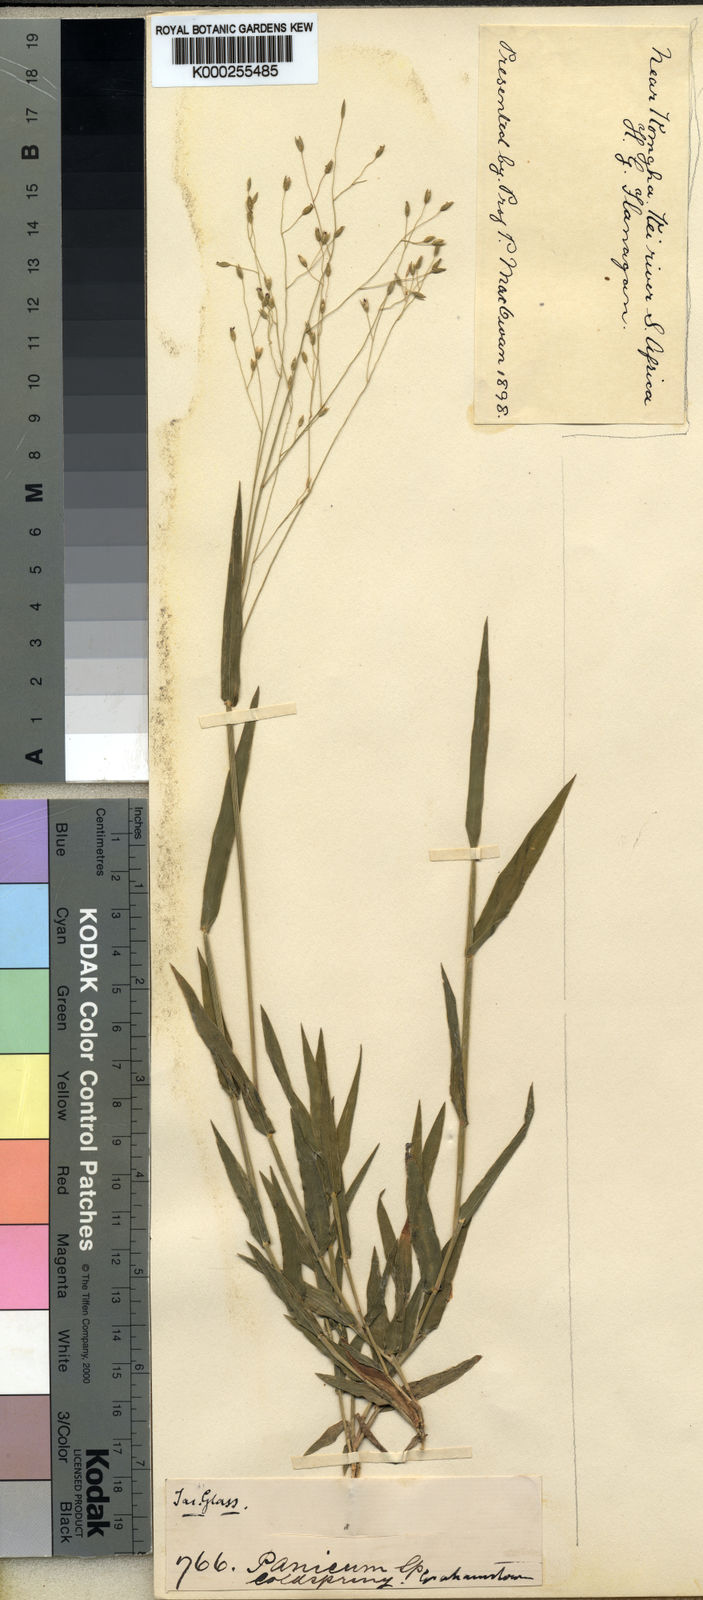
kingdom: Plantae
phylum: Tracheophyta
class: Liliopsida
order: Poales
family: Poaceae
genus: Panicum
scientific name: Panicum aequinerve
